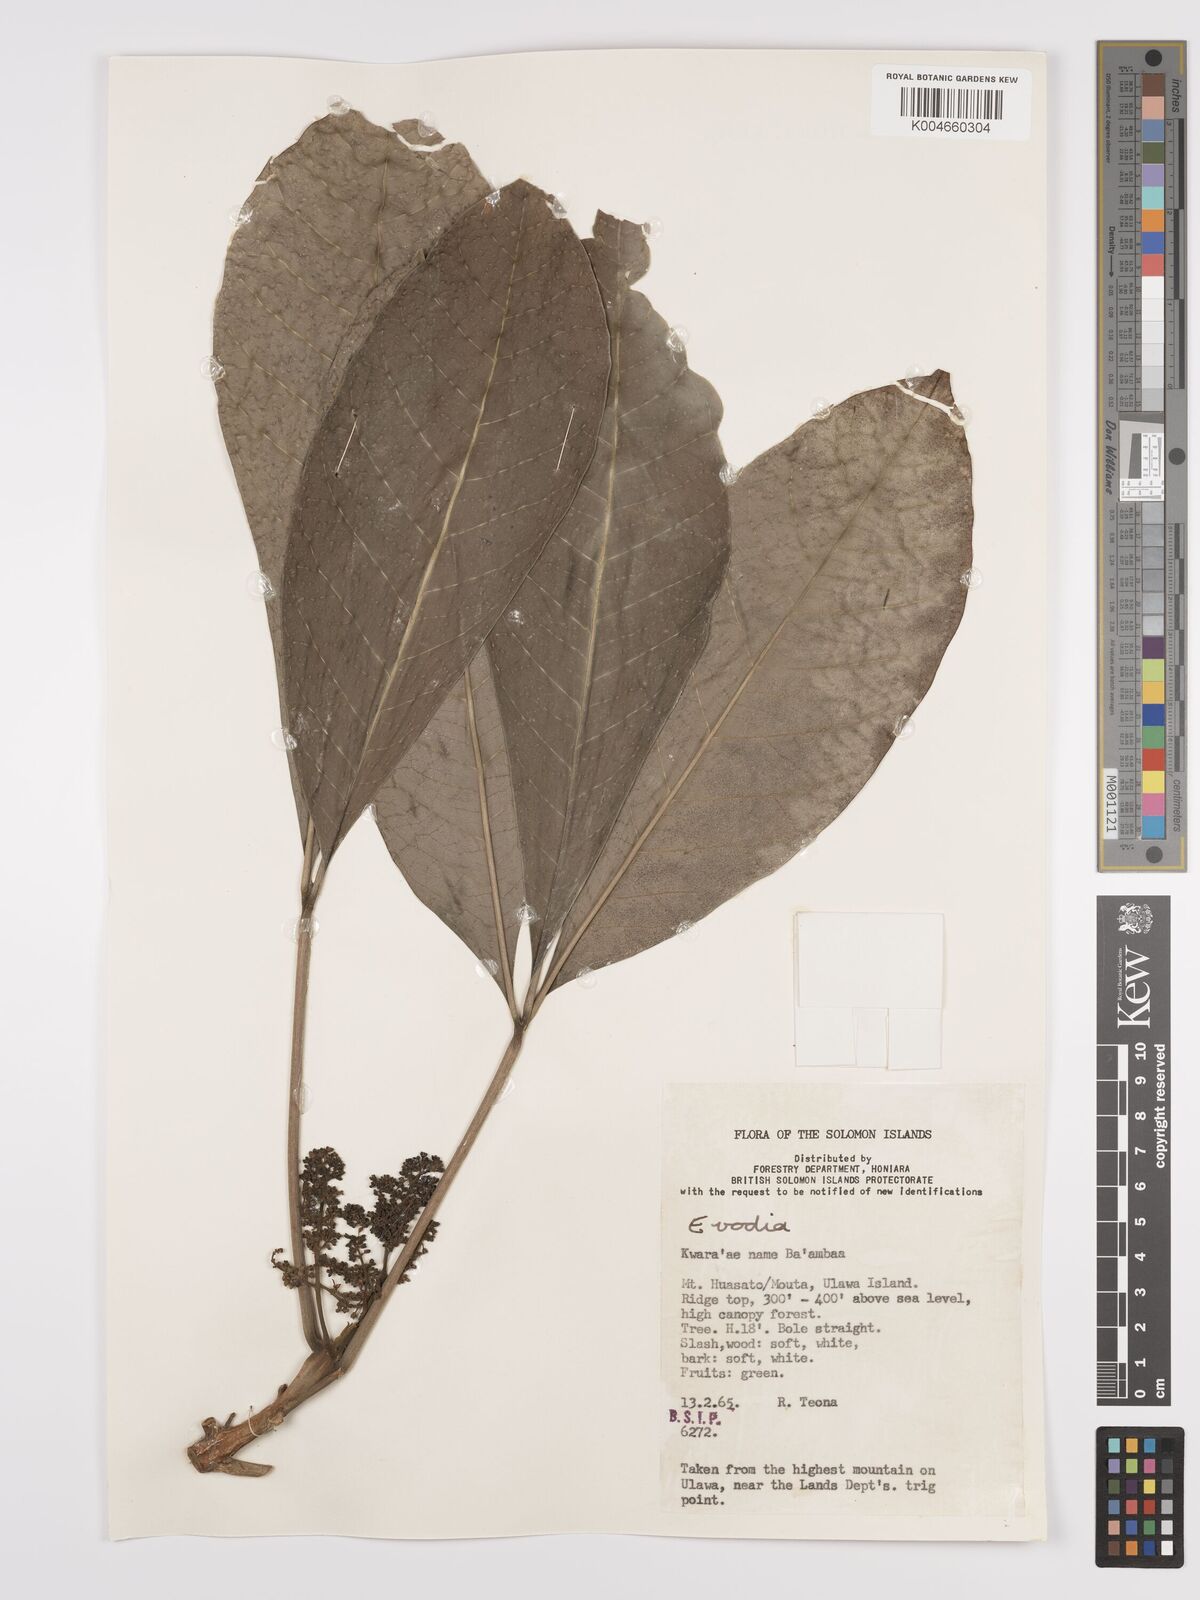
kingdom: Plantae
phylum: Tracheophyta
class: Magnoliopsida
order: Sapindales
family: Rutaceae
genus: Euodia
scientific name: Euodia
